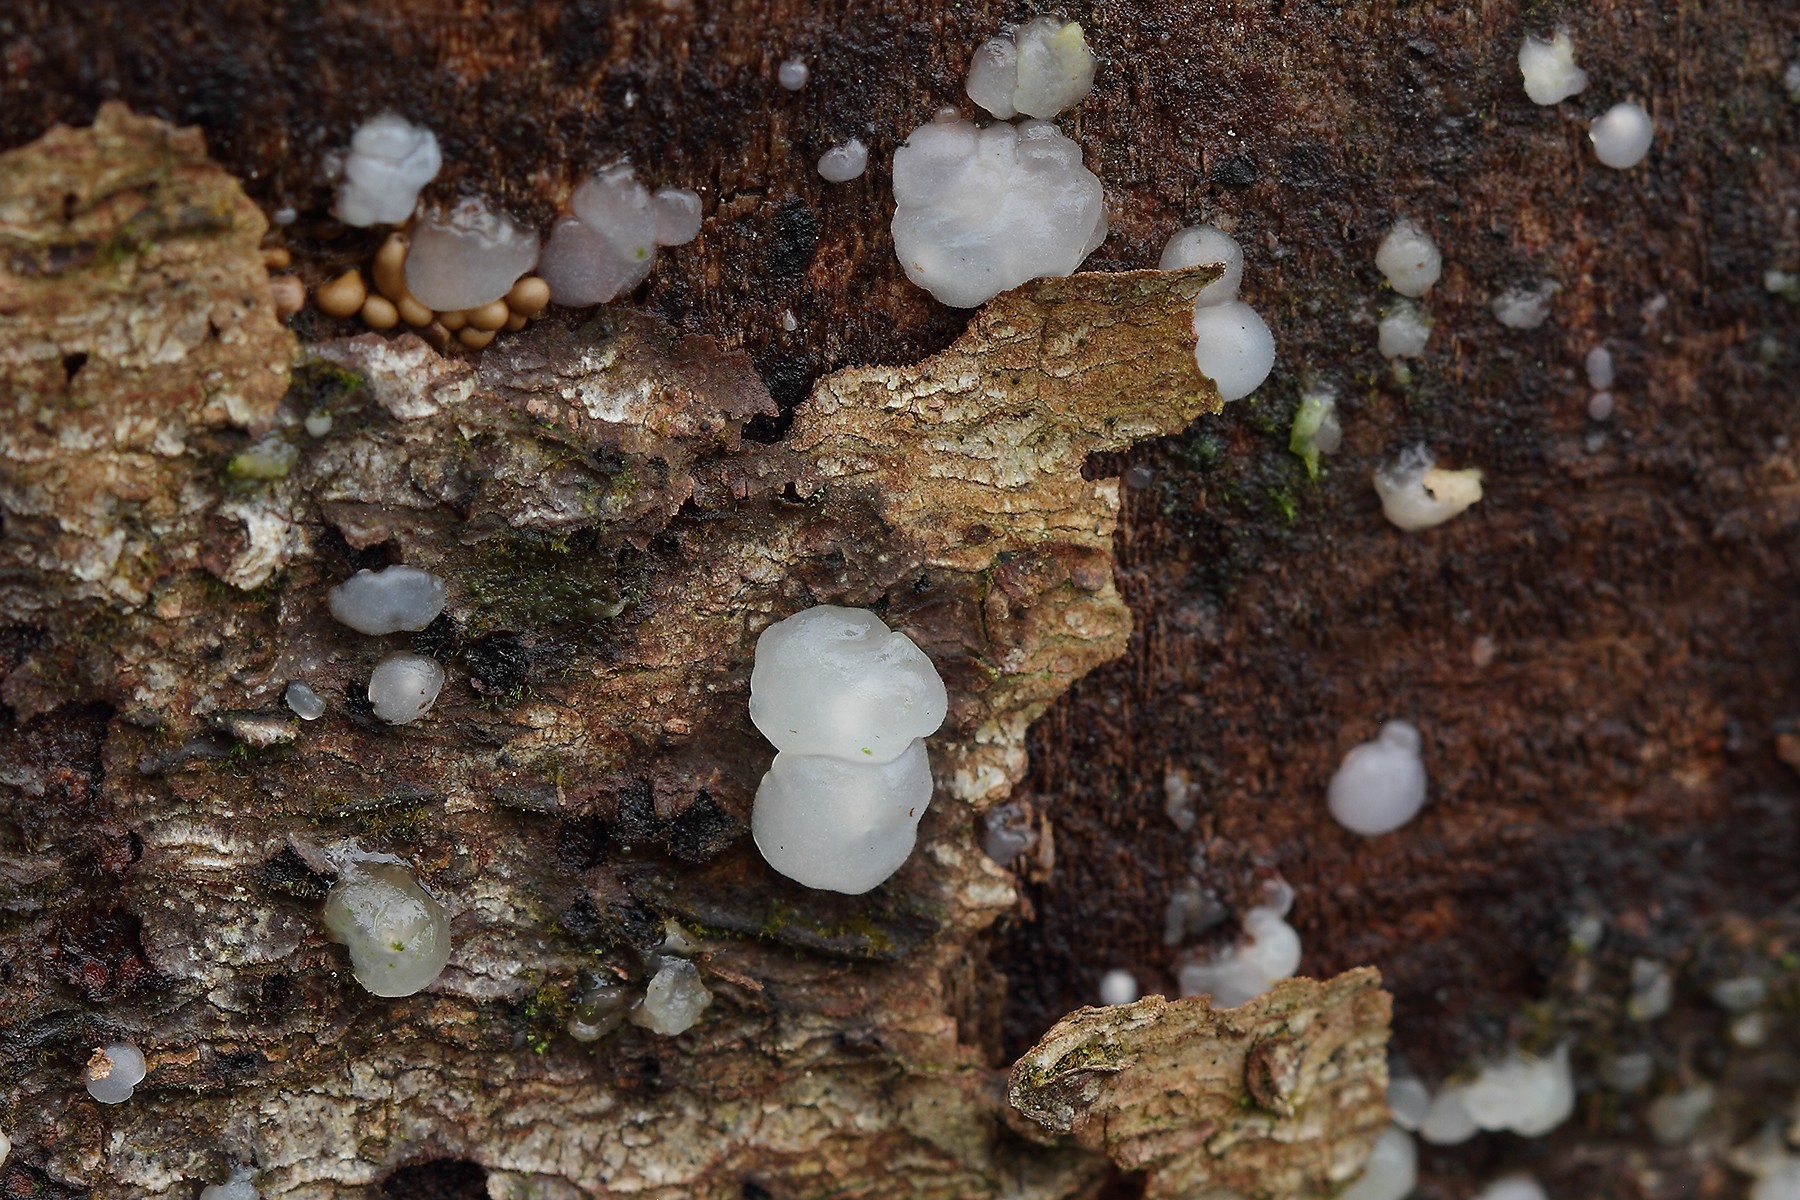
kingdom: Fungi
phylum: Basidiomycota
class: Agaricomycetes
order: Auriculariales
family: Hyaloriaceae
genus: Myxarium
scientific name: Myxarium nucleatum
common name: klar bævretop
